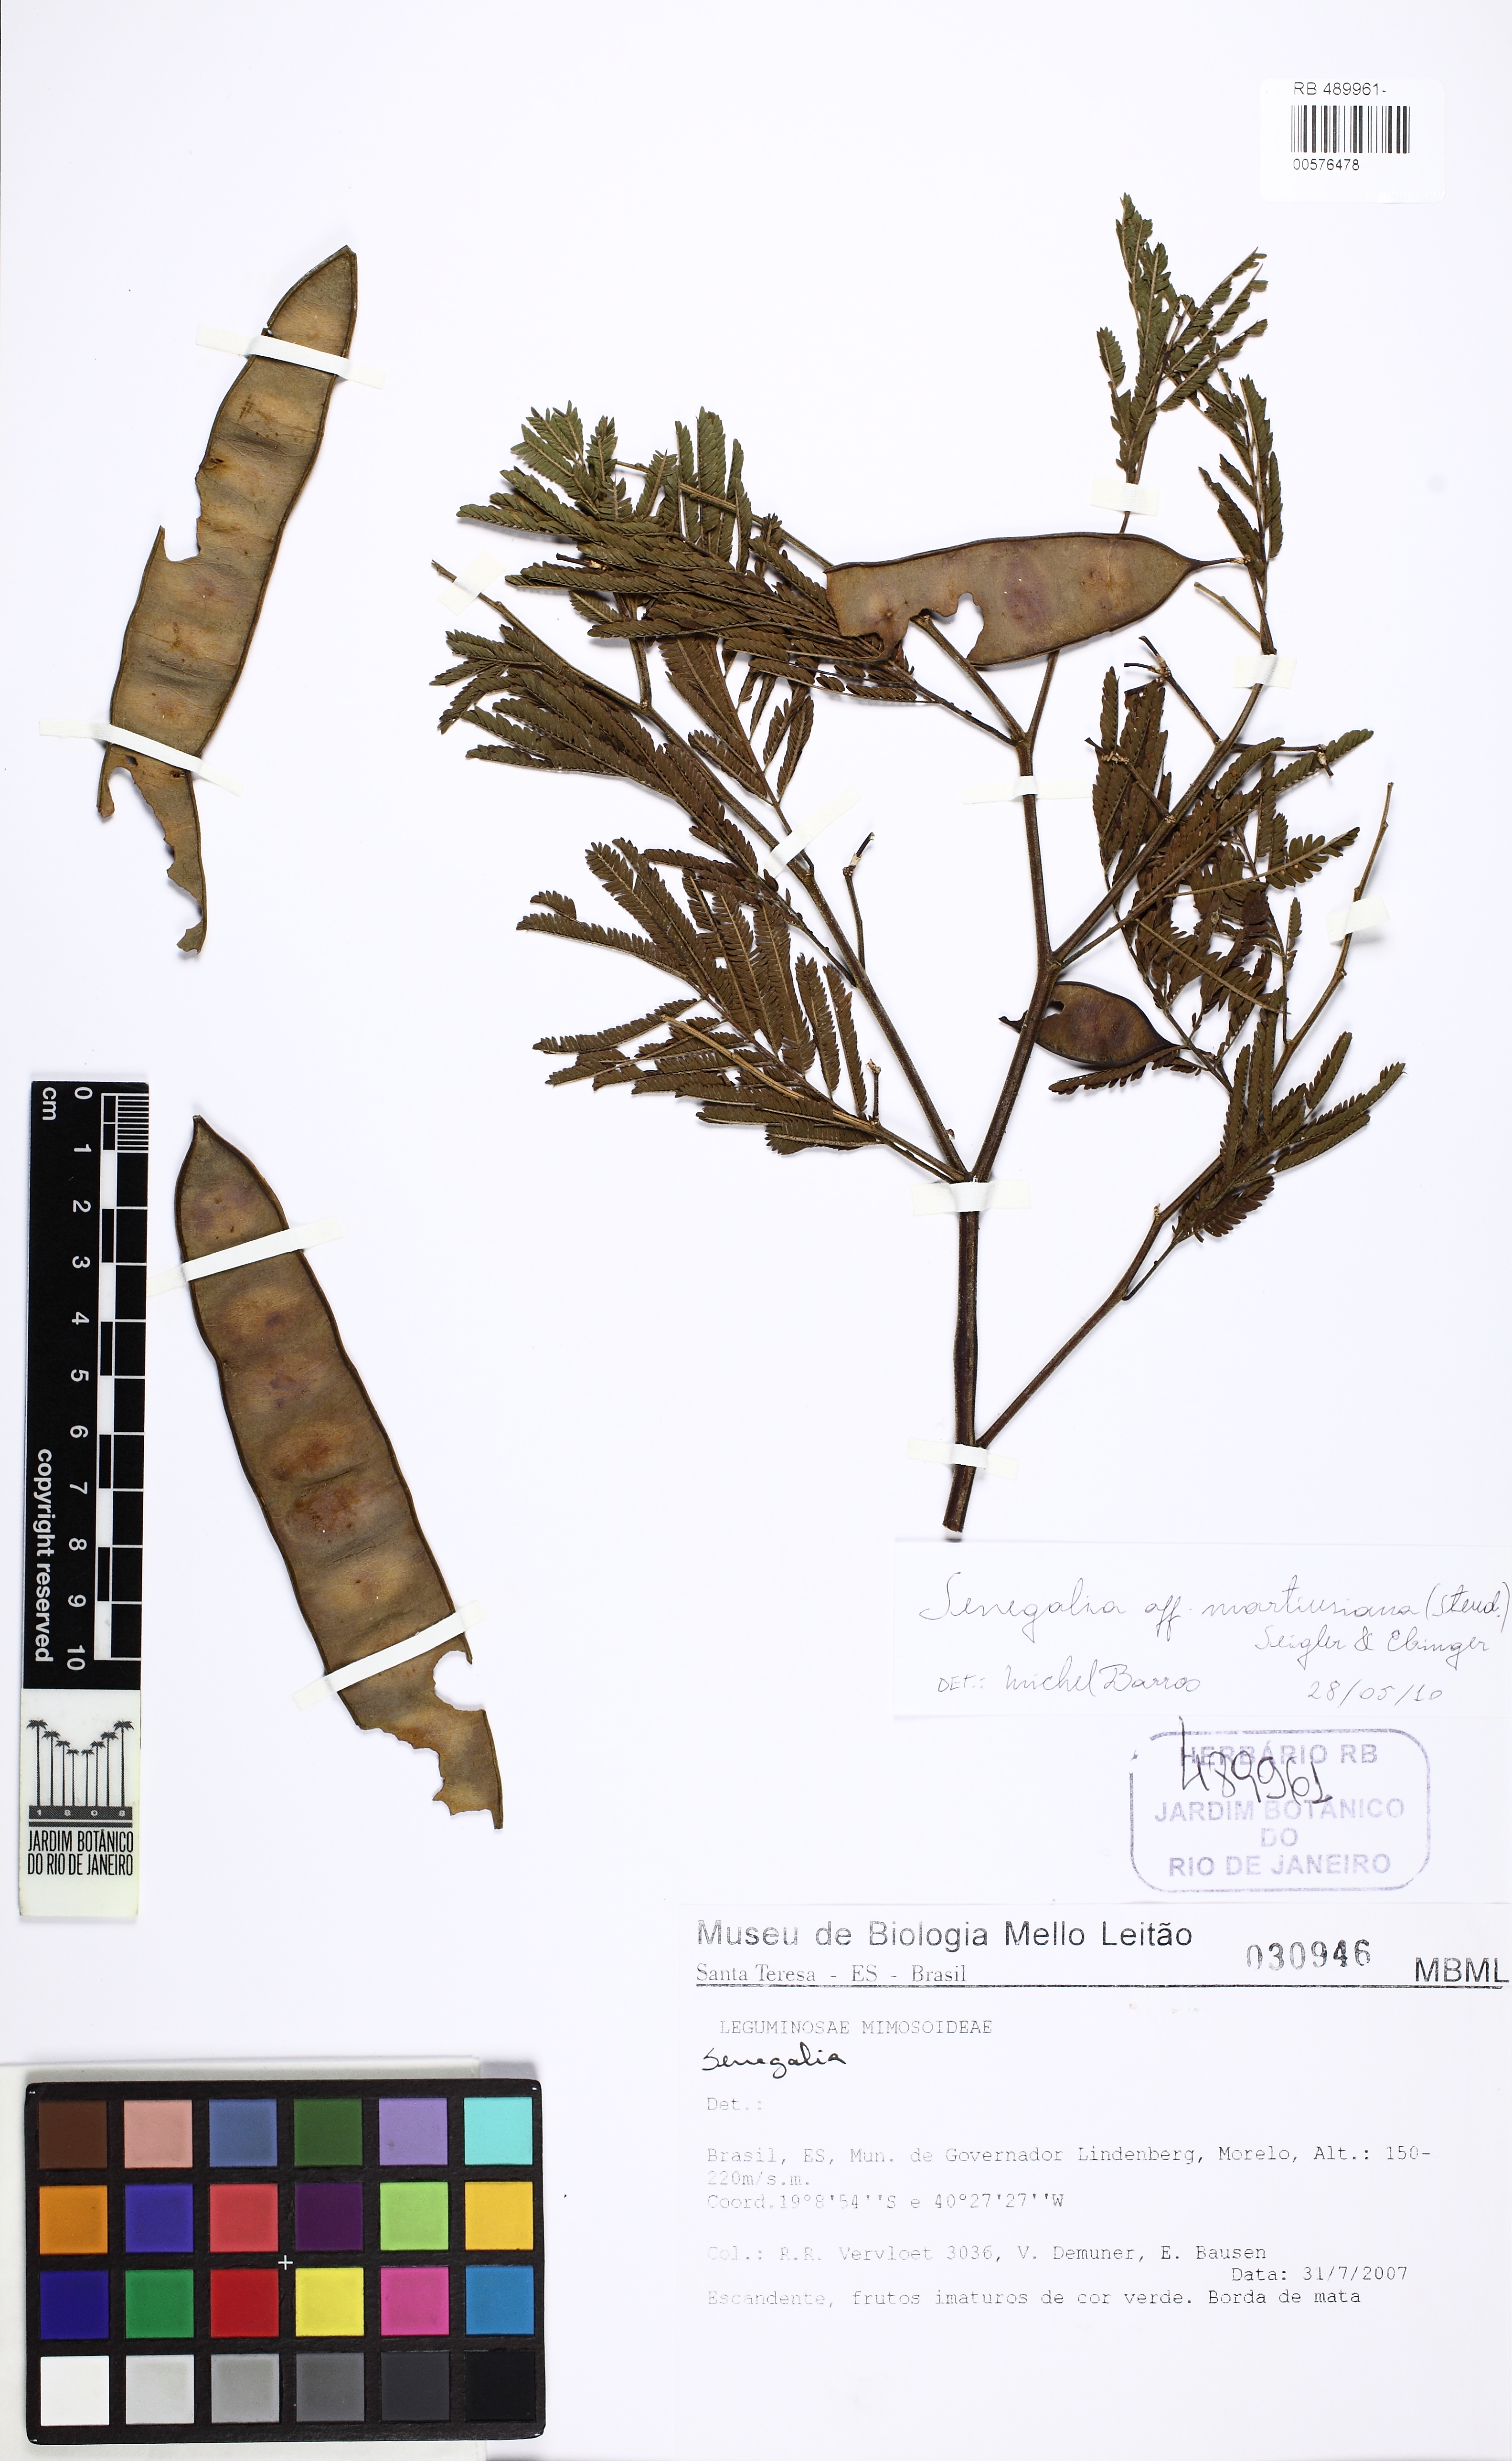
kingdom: Plantae
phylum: Tracheophyta
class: Magnoliopsida
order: Fabales
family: Fabaceae
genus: Senegalia
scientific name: Senegalia martiusiana
